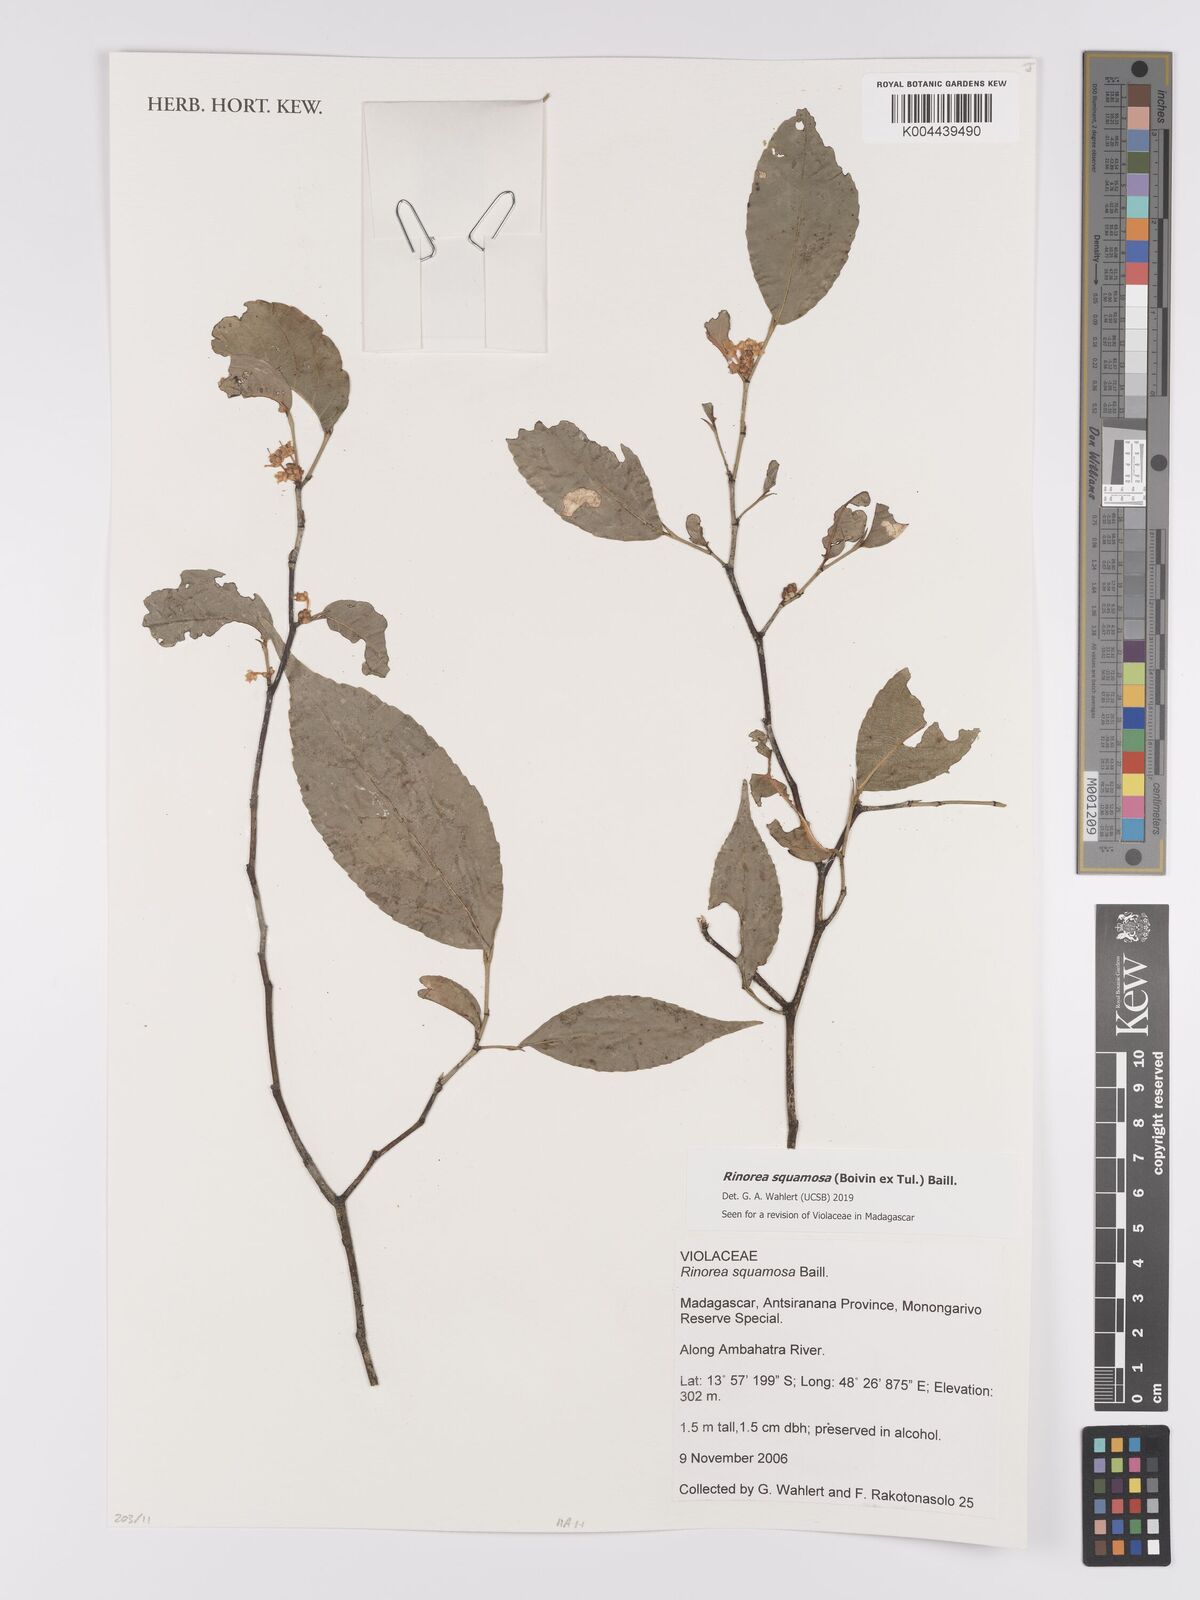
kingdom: Plantae
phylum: Tracheophyta
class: Magnoliopsida
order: Malpighiales
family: Violaceae
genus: Rinorea
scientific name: Rinorea squamosa
